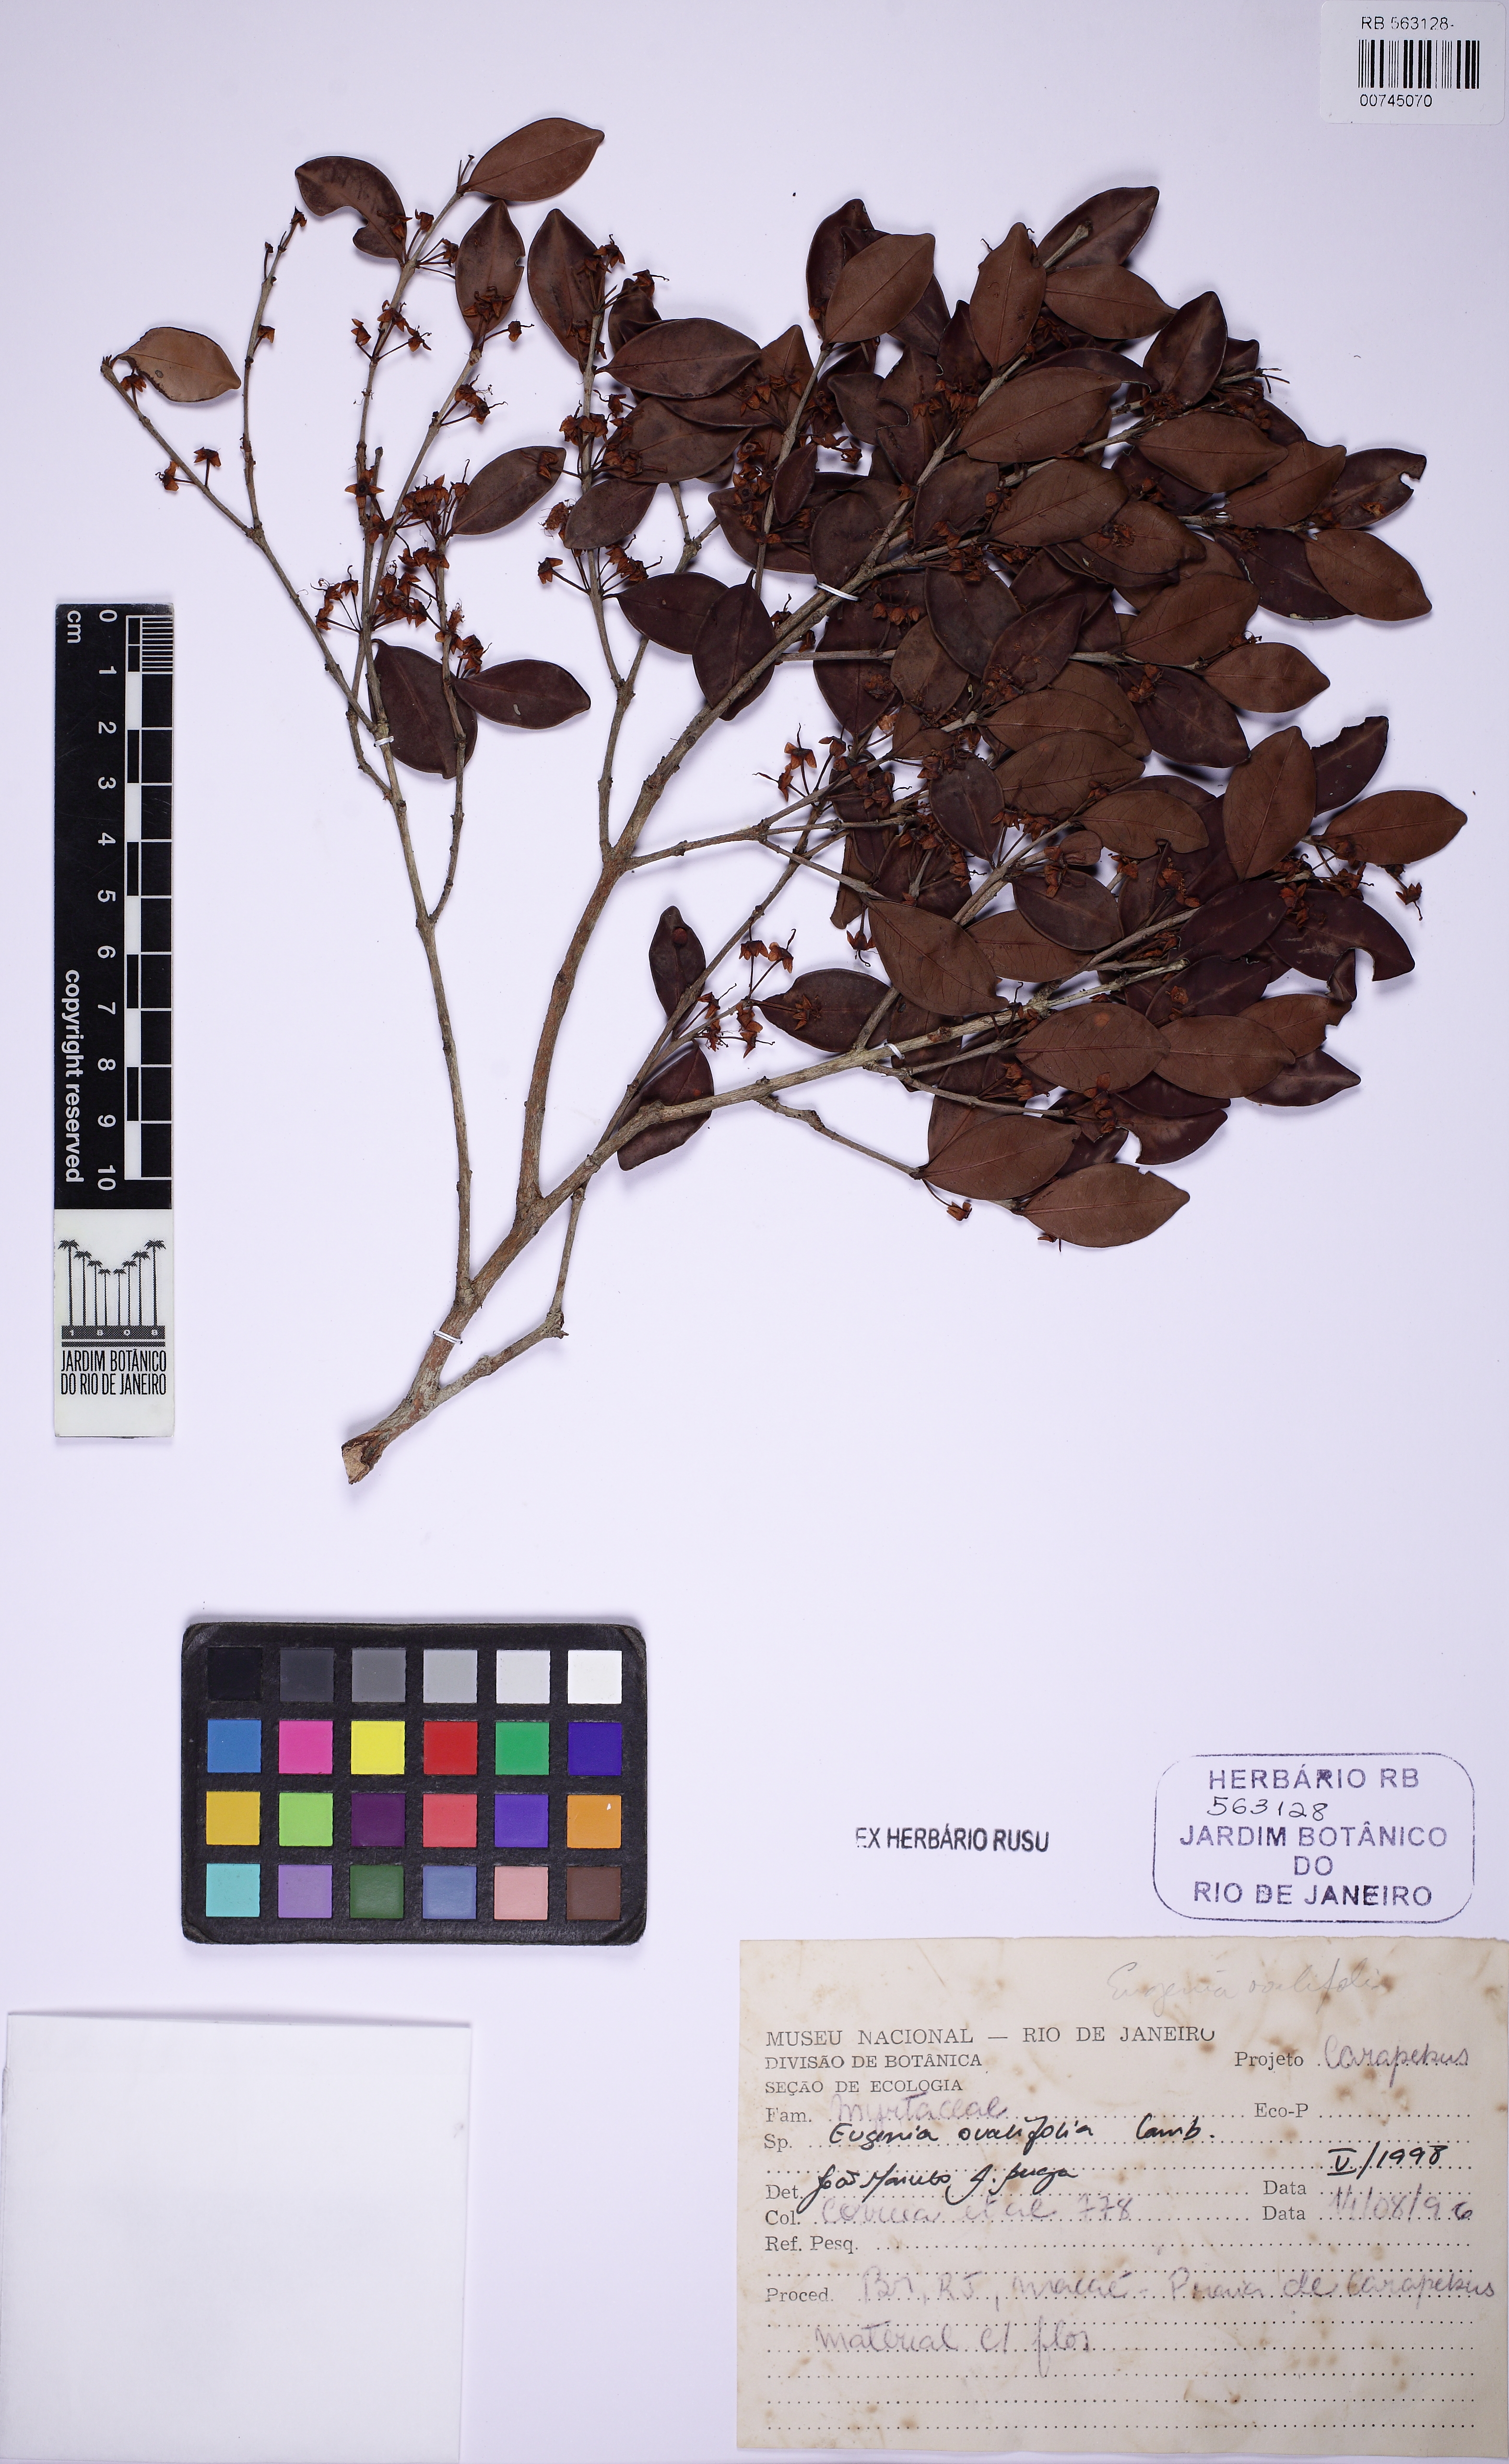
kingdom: Plantae
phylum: Tracheophyta
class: Magnoliopsida
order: Myrtales
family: Myrtaceae
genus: Eugenia
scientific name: Eugenia punicifolia
